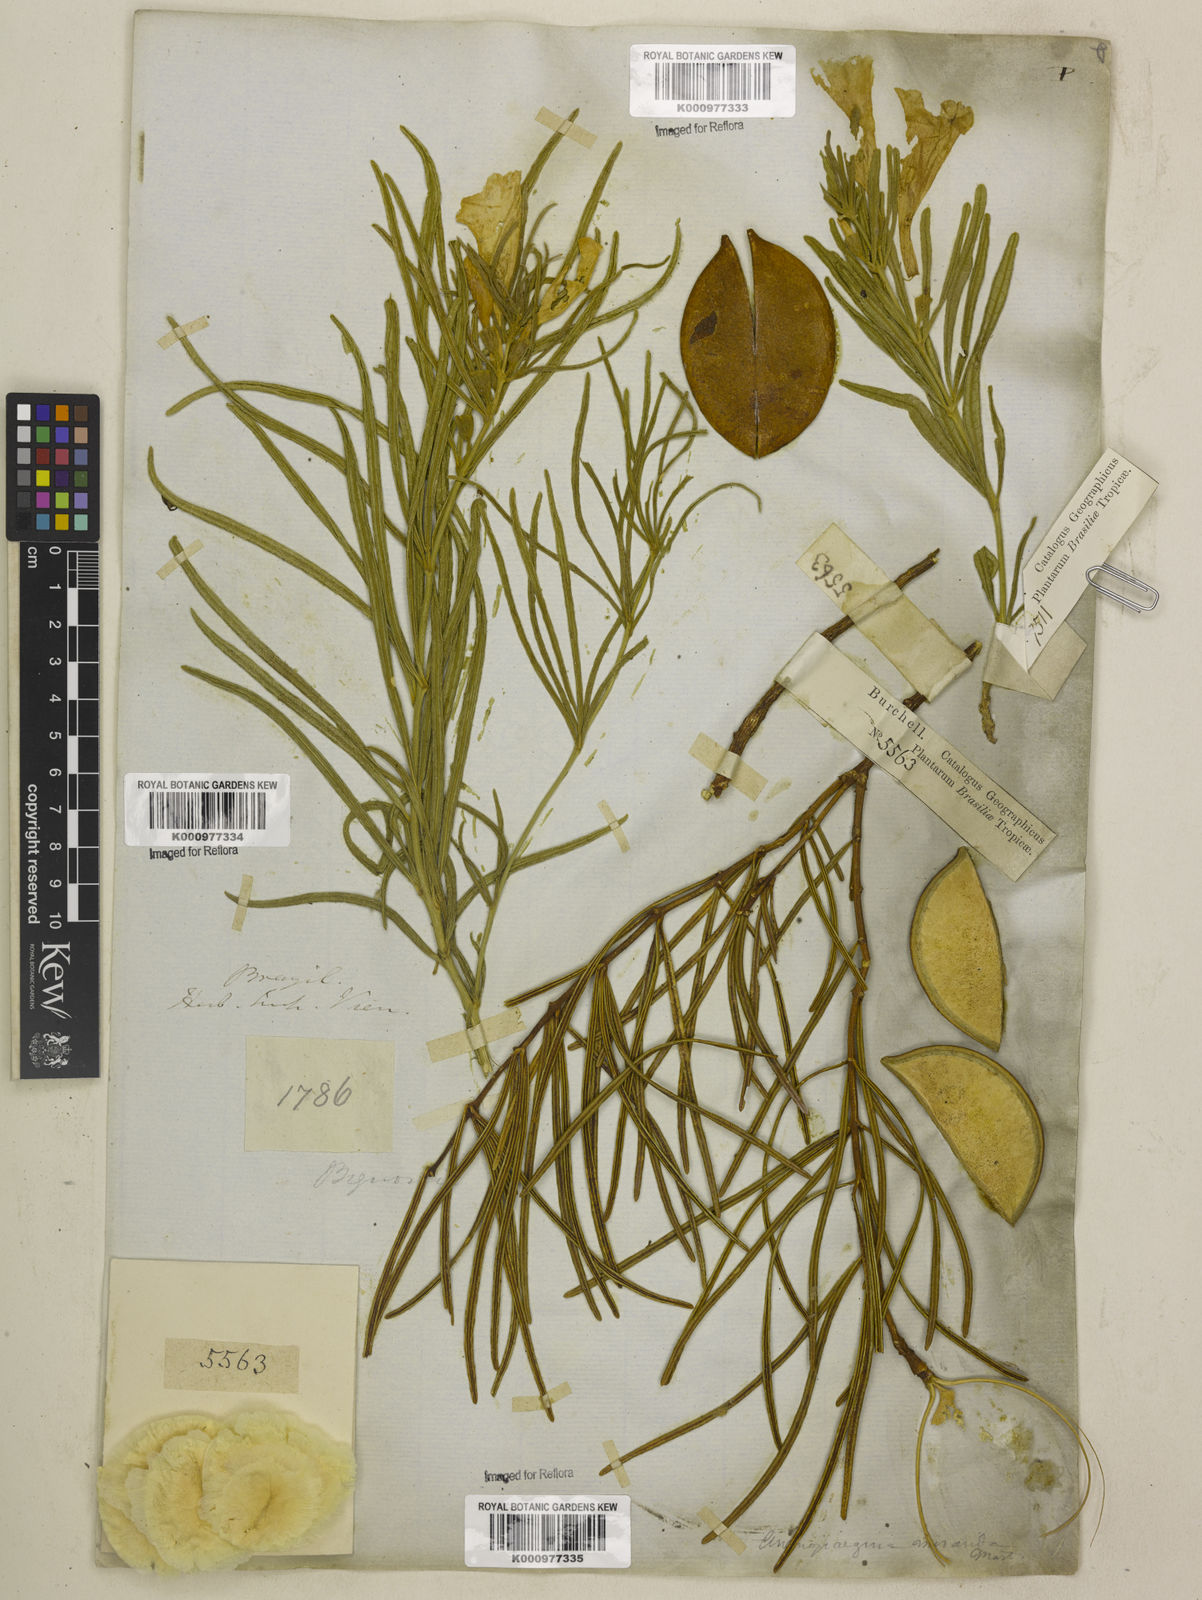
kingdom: Plantae
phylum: Tracheophyta
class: Magnoliopsida
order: Lamiales
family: Bignoniaceae
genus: Anemopaegma
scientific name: Anemopaegma arvense
